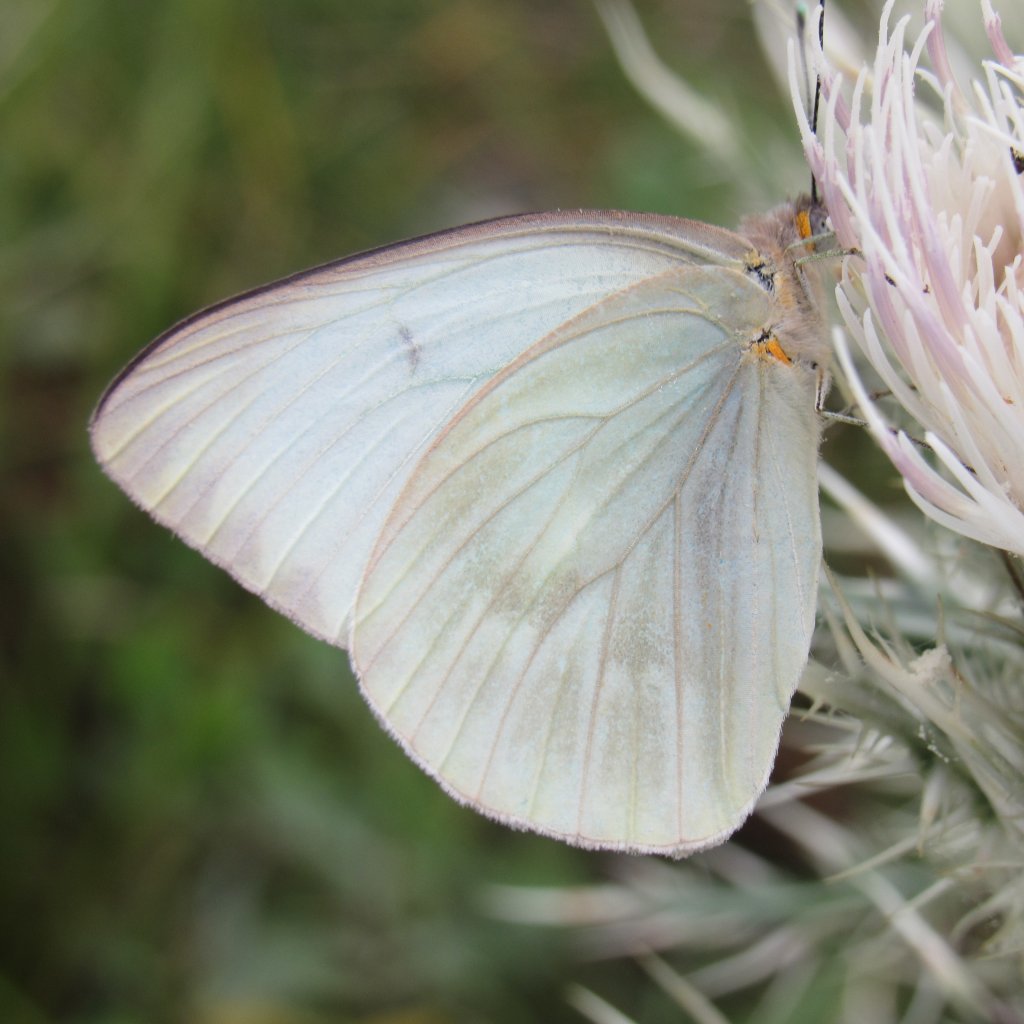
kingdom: Animalia
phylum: Arthropoda
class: Insecta
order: Lepidoptera
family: Pieridae
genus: Ascia
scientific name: Ascia monuste
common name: Great Southern White
